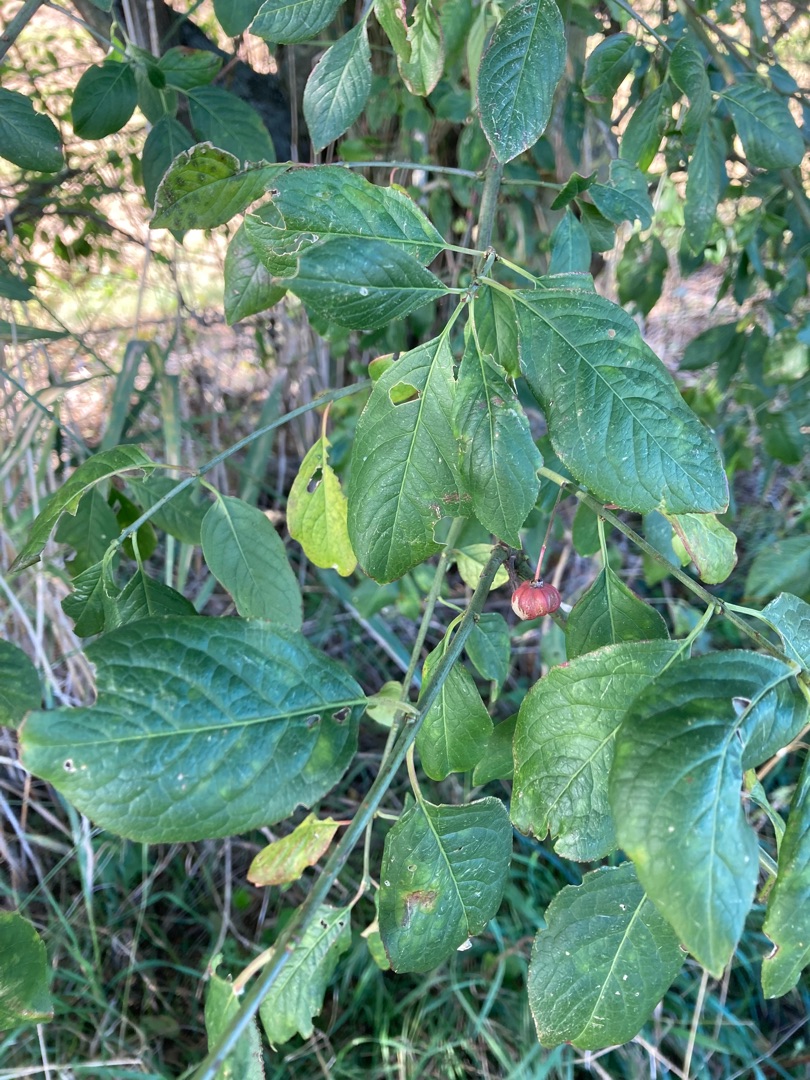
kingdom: Plantae
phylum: Tracheophyta
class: Magnoliopsida
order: Celastrales
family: Celastraceae
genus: Euonymus
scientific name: Euonymus europaeus
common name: Benved
